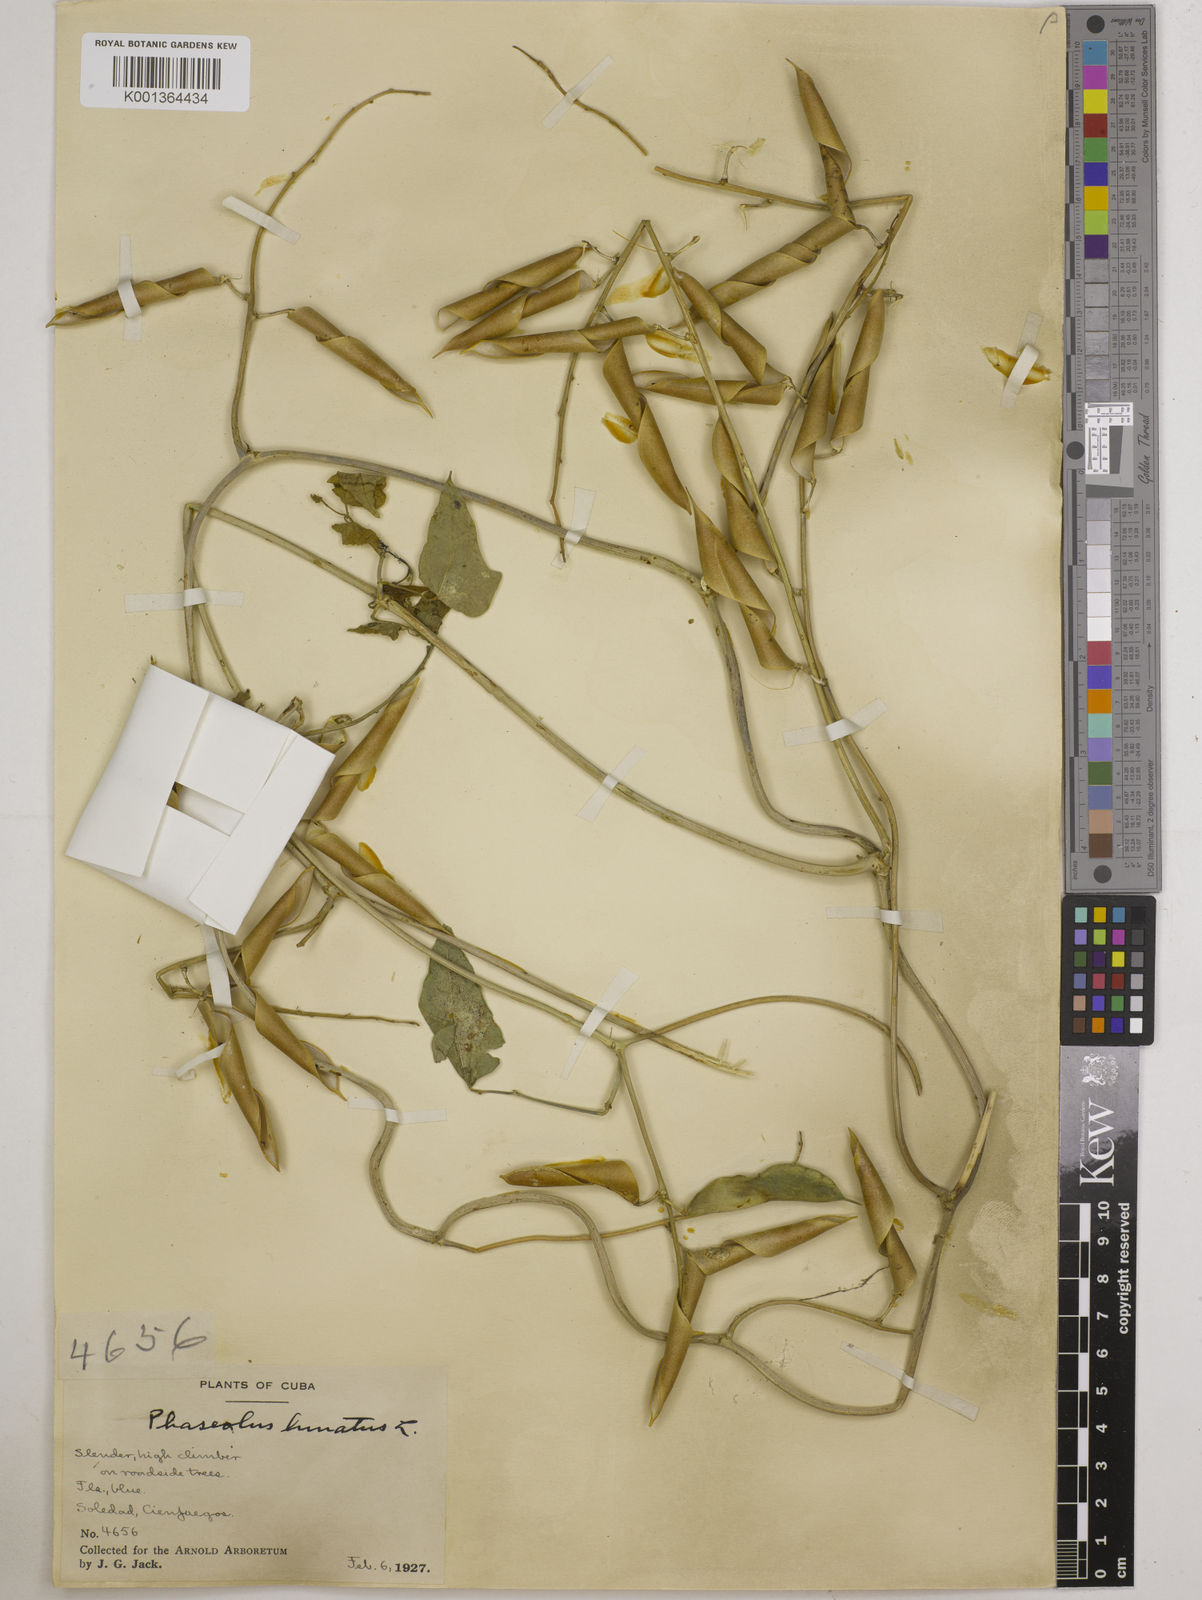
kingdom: Plantae
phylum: Tracheophyta
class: Magnoliopsida
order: Fabales
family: Fabaceae
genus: Phaseolus
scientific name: Phaseolus lunatus
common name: Sieva bean
